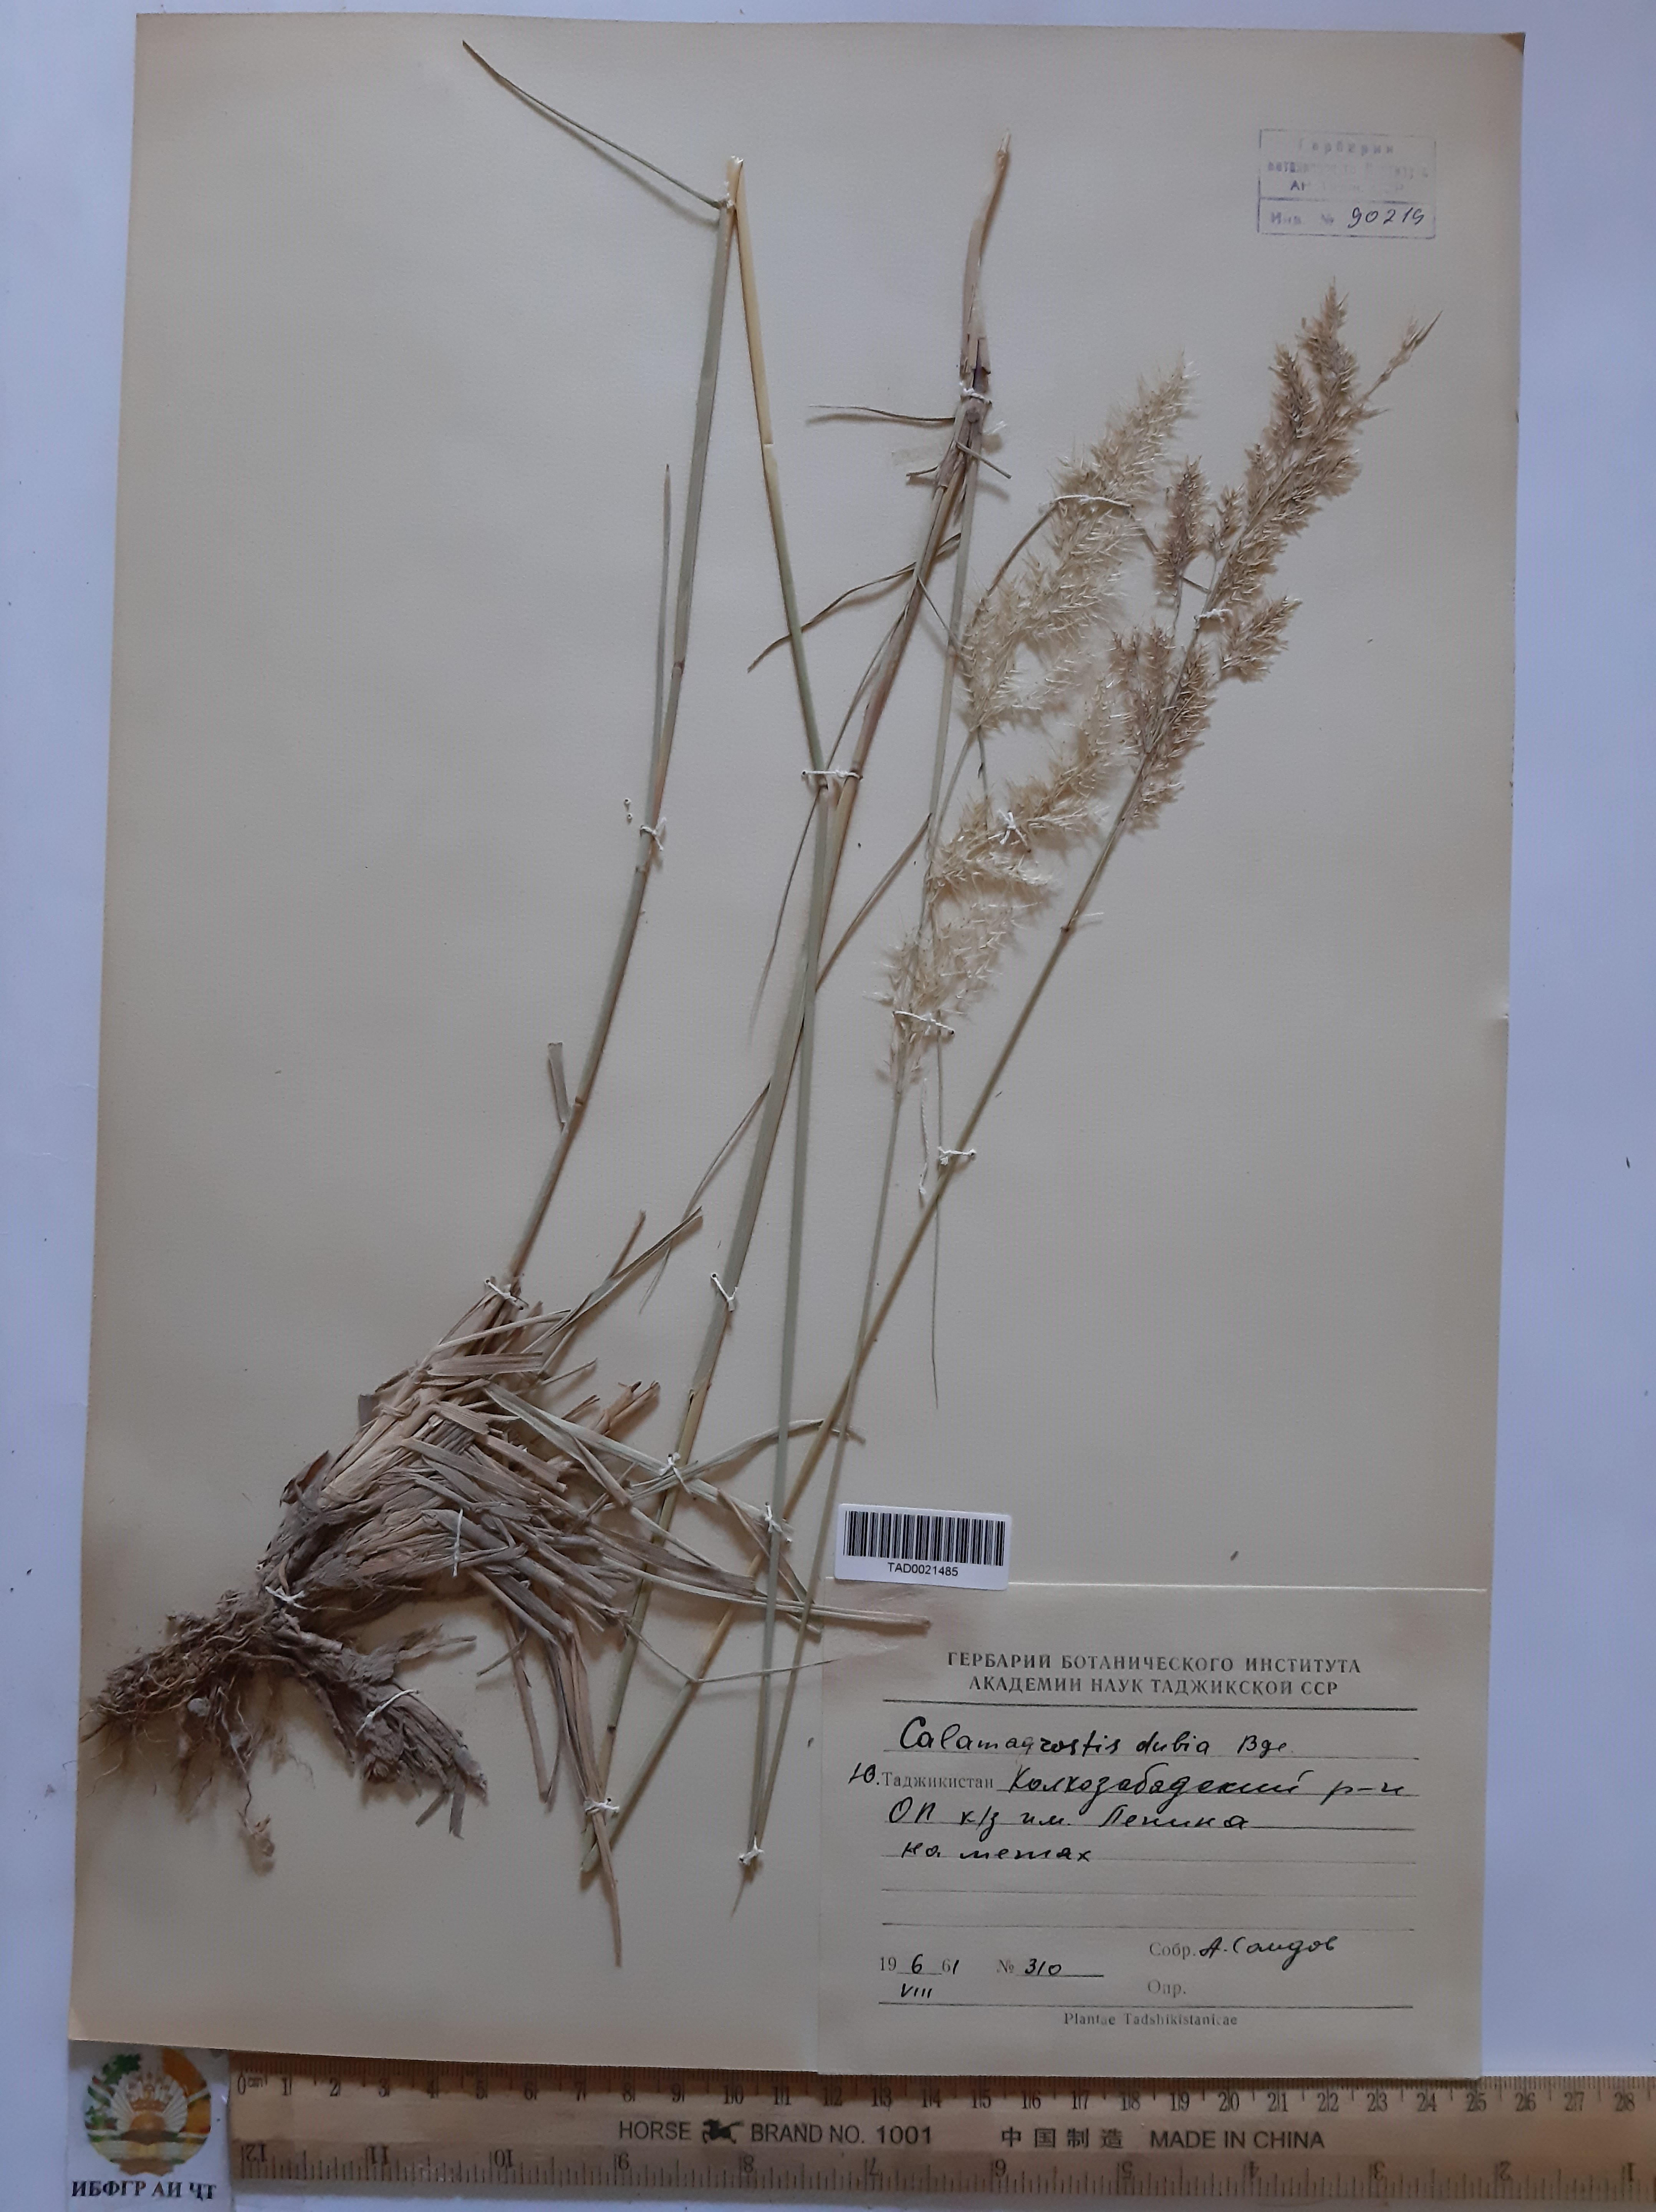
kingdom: Plantae
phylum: Tracheophyta
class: Liliopsida
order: Poales
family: Poaceae
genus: Calamagrostis
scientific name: Calamagrostis pseudophragmites
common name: Coastal small-reed
